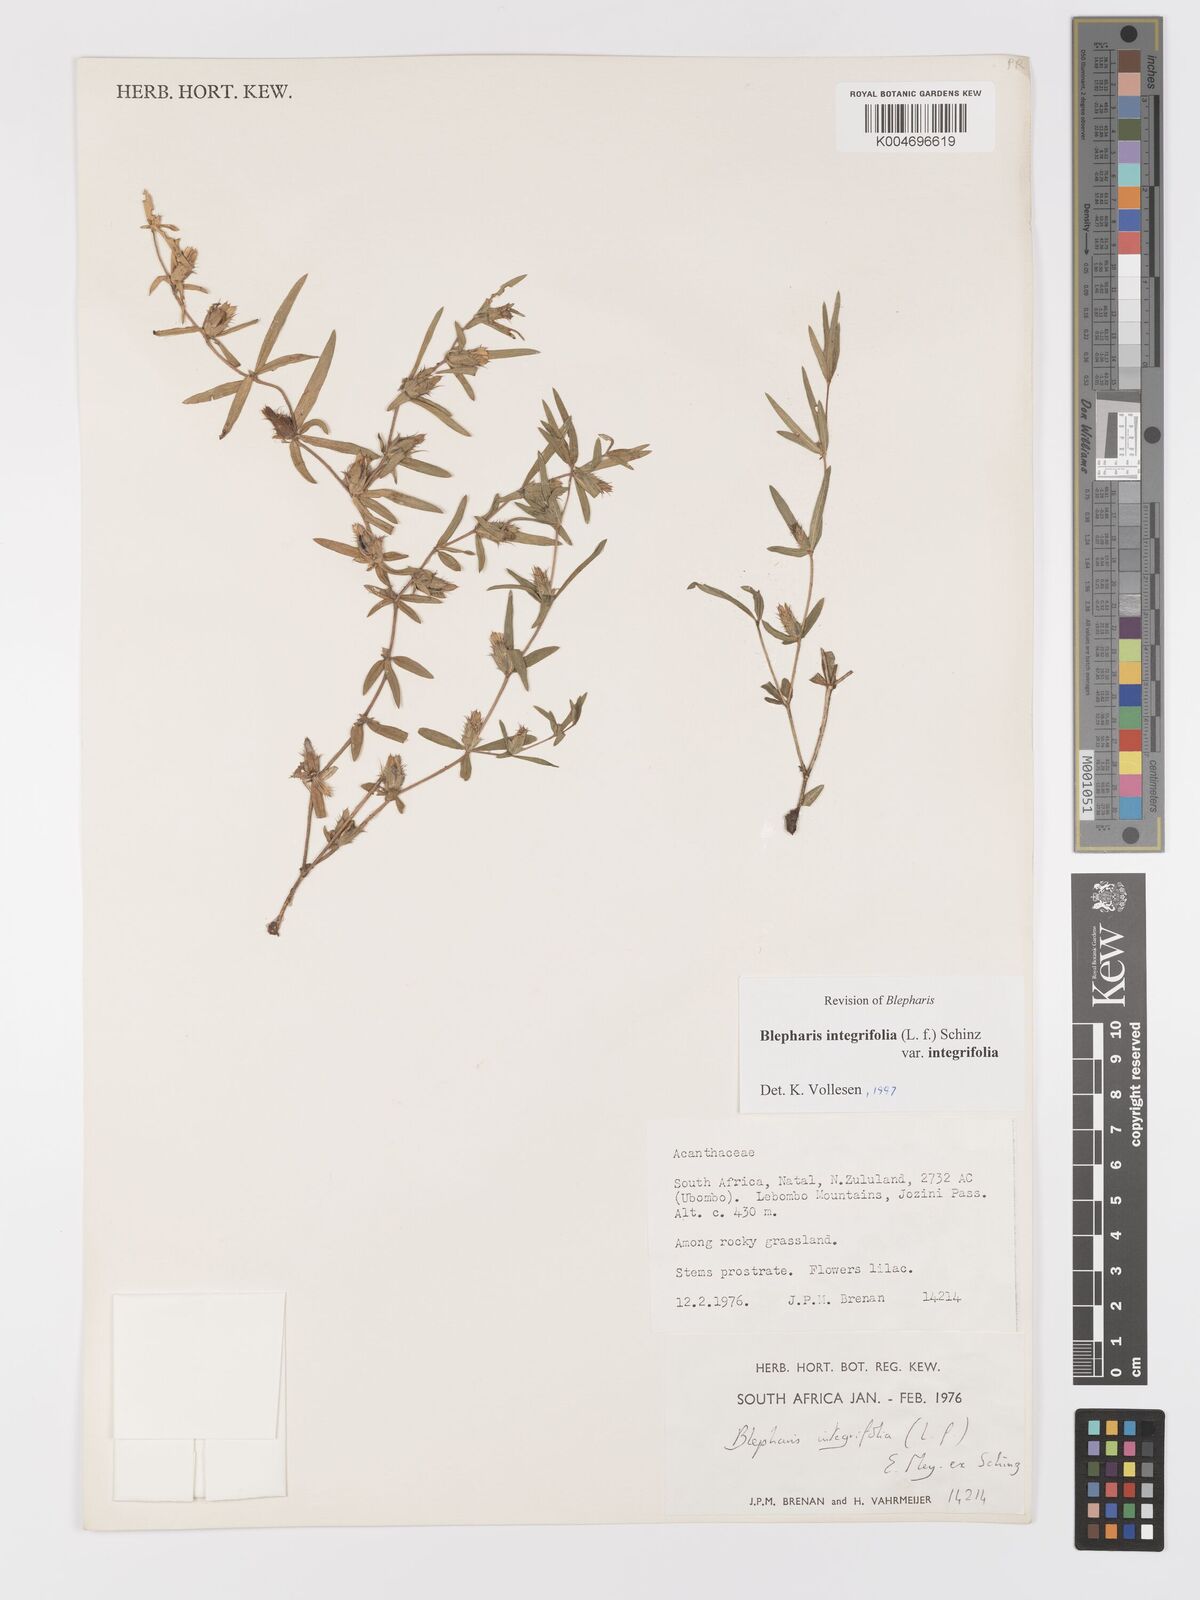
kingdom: Plantae
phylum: Tracheophyta
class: Magnoliopsida
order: Lamiales
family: Acanthaceae
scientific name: Acanthaceae
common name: Acanthaceae
